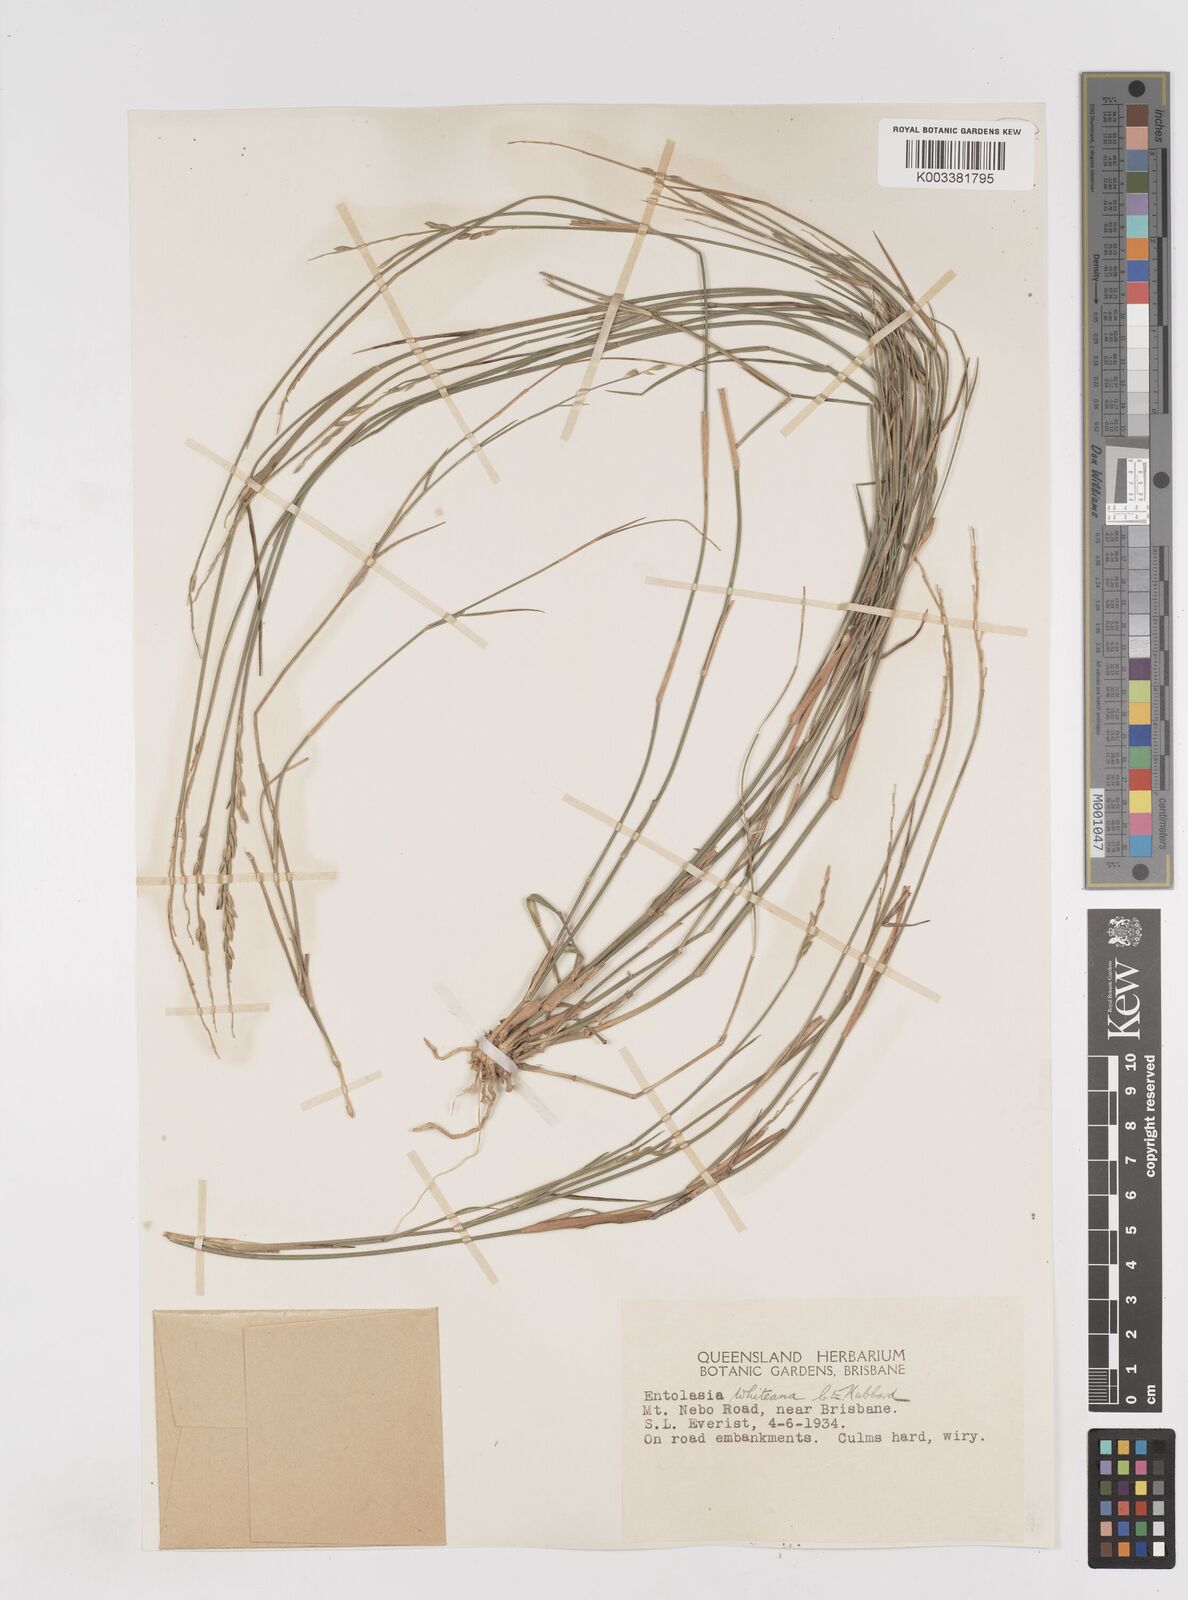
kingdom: Plantae
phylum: Tracheophyta
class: Liliopsida
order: Poales
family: Poaceae
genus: Entolasia
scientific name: Entolasia whiteana
